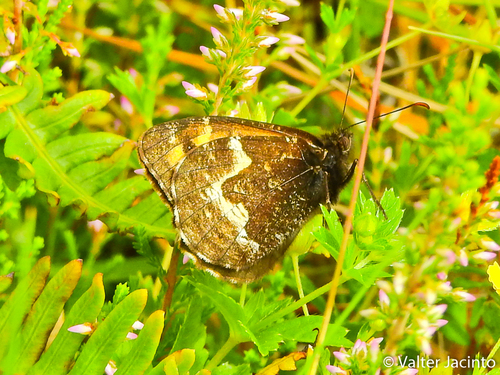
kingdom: Animalia
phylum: Arthropoda
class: Insecta
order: Lepidoptera
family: Nymphalidae
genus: Hipparchia
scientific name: Hipparchia azorinus
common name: Azores grayling
